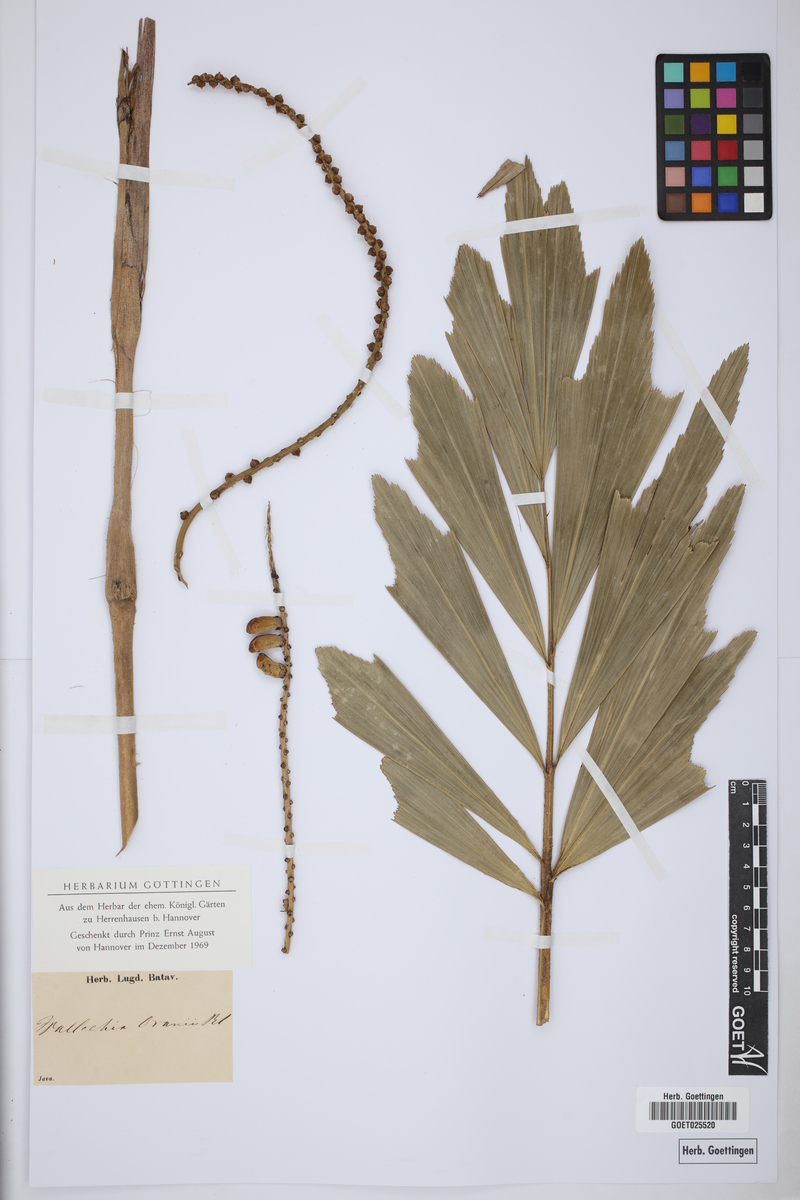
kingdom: Plantae
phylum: Tracheophyta
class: Liliopsida
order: Arecales
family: Arecaceae
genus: Arenga
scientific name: Arenga porphyrocarpa
